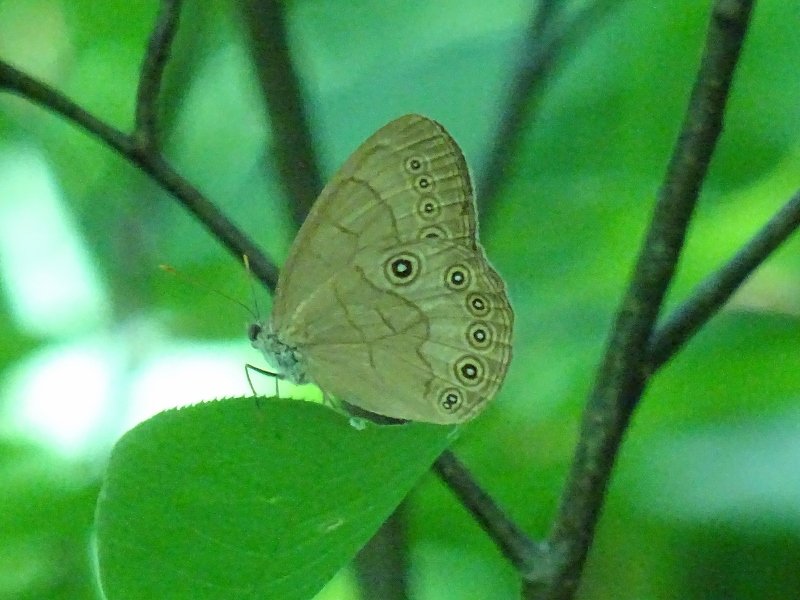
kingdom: Animalia
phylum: Arthropoda
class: Insecta
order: Lepidoptera
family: Nymphalidae
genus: Lethe
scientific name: Lethe eurydice
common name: Appalachian Eyed Brown
